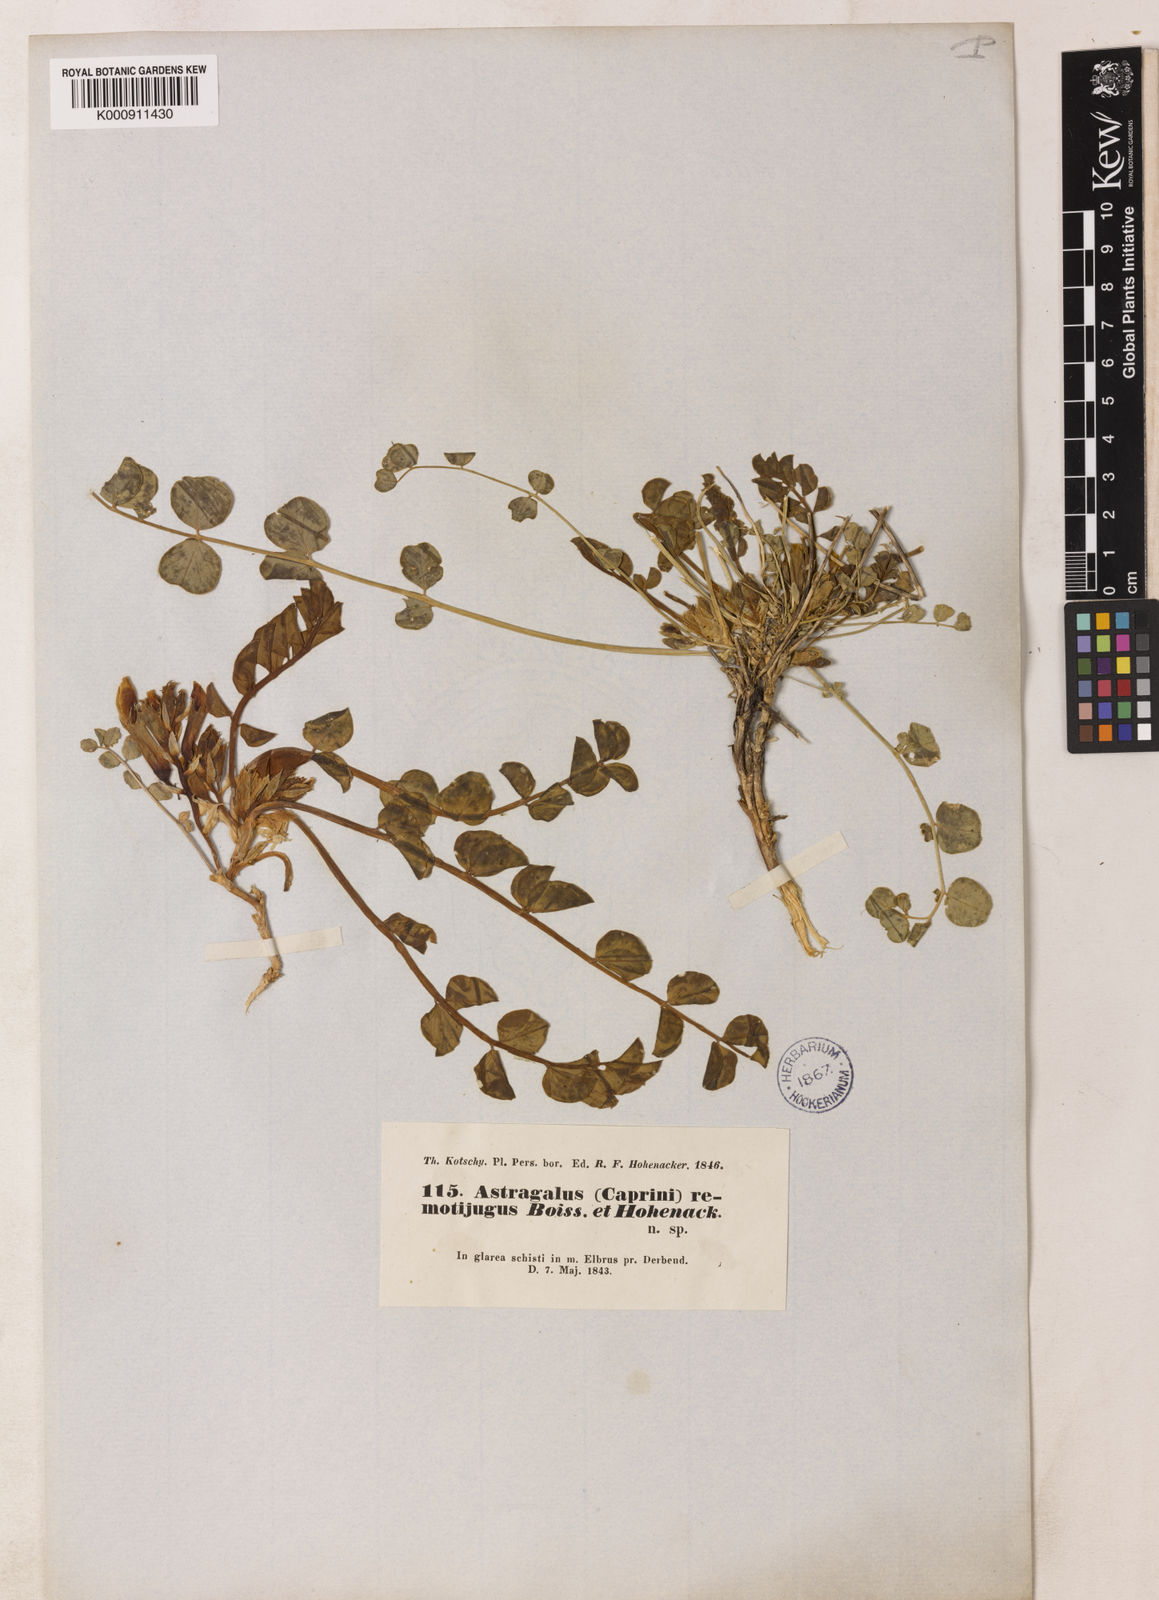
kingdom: Plantae
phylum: Tracheophyta
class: Magnoliopsida
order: Fabales
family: Fabaceae
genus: Astragalus
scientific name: Astragalus remotijugus
